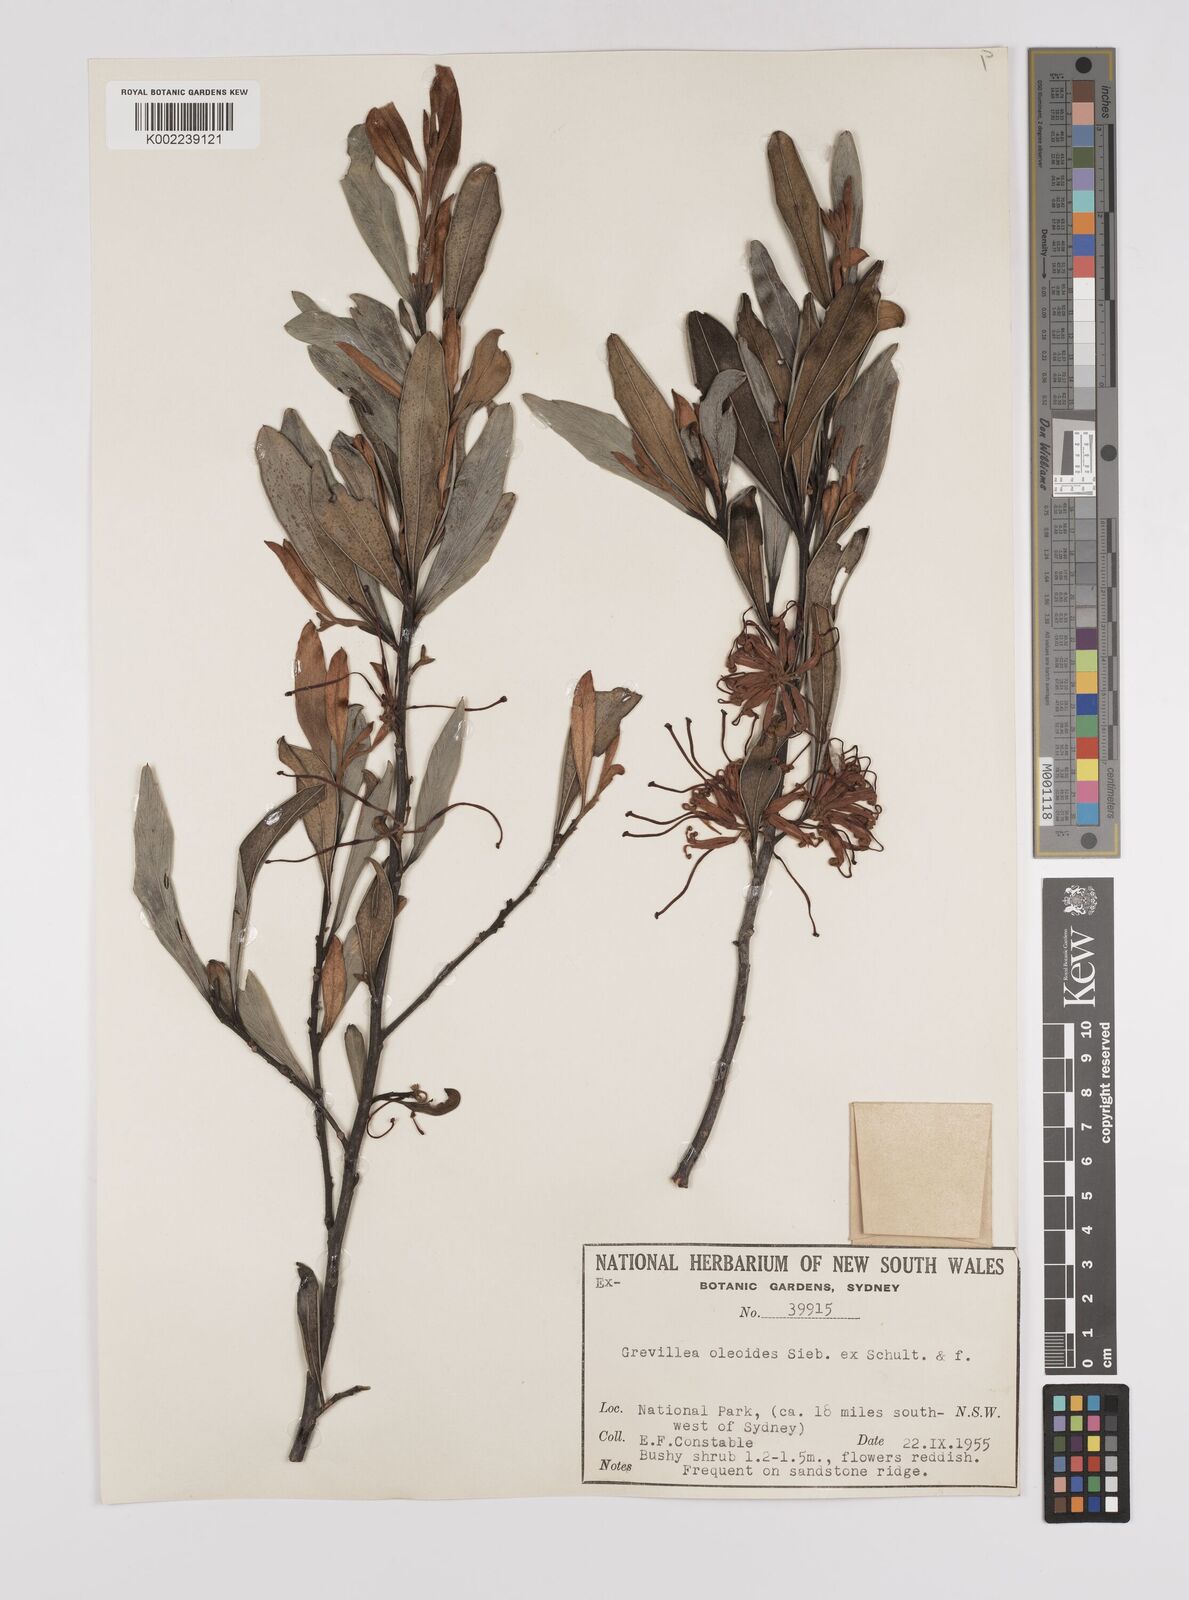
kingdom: Plantae
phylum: Tracheophyta
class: Magnoliopsida
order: Proteales
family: Proteaceae
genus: Grevillea
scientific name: Grevillea oleoides
